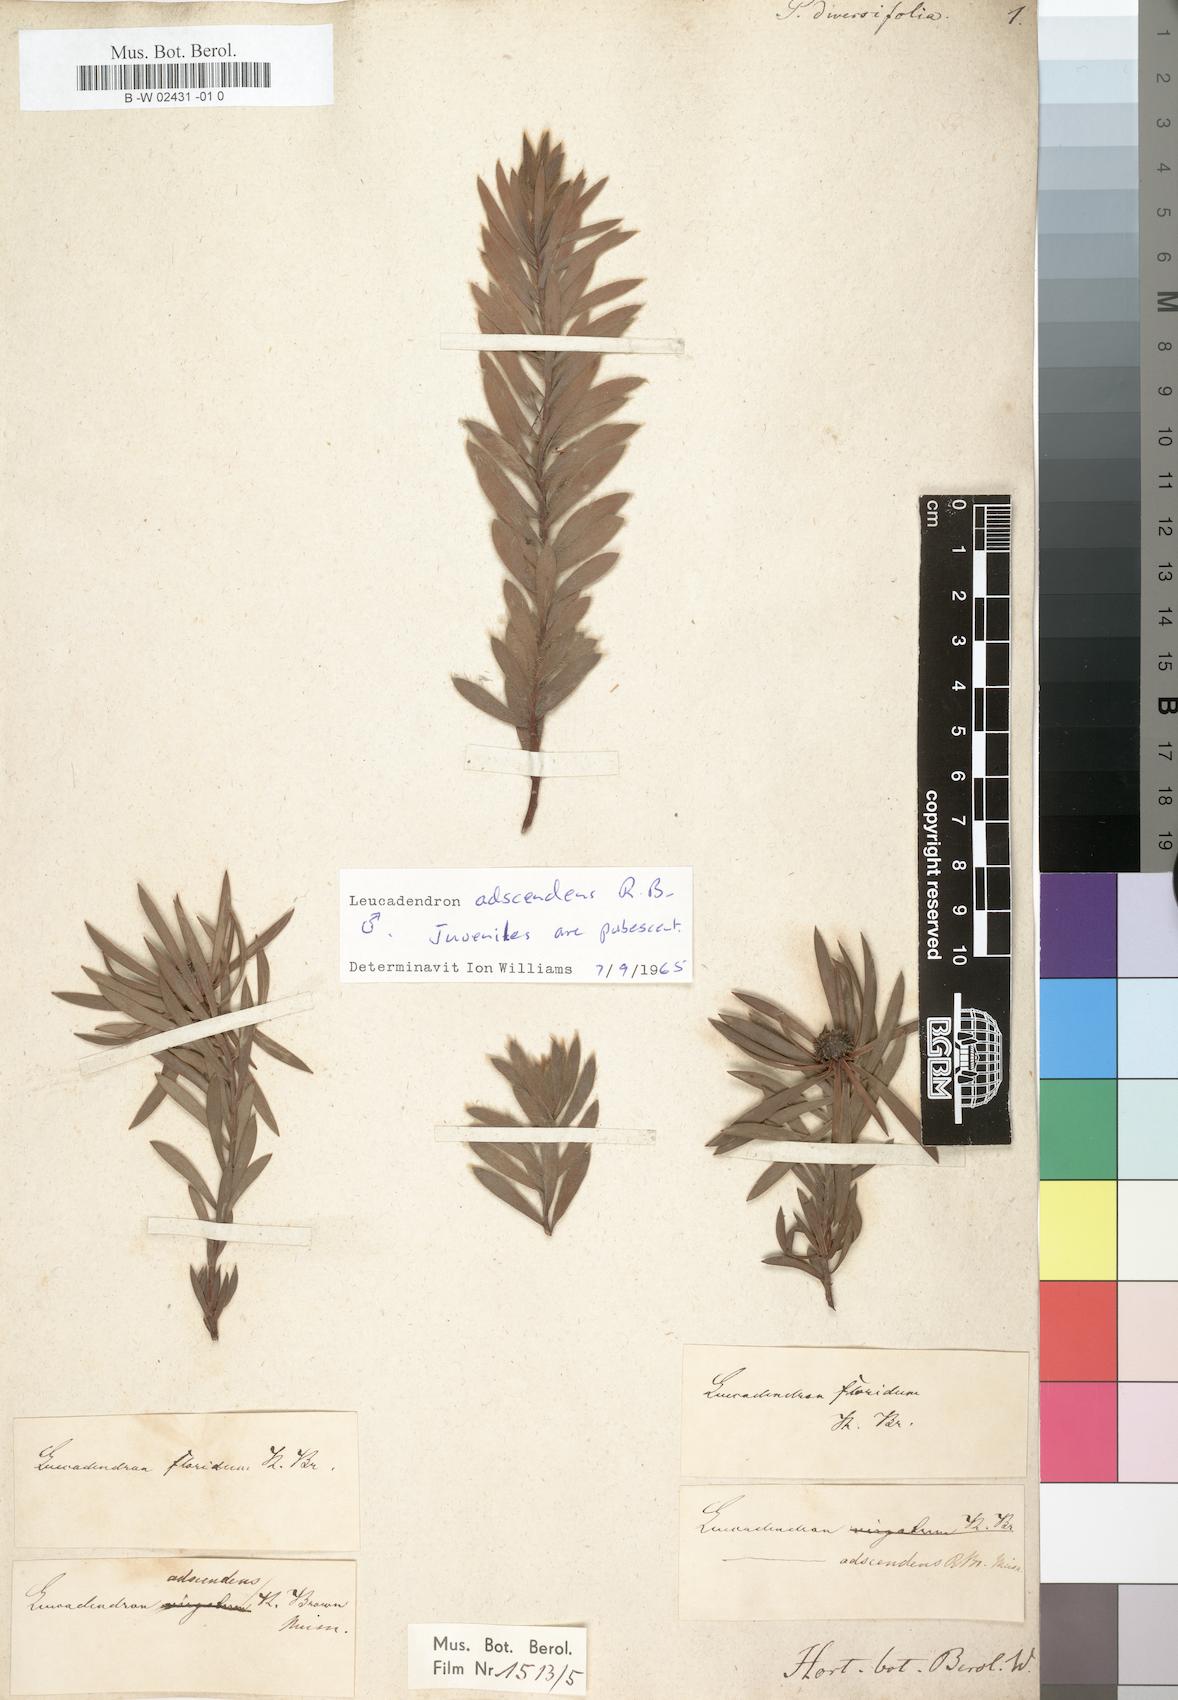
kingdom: Plantae
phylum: Tracheophyta
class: Magnoliopsida
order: Proteales
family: Proteaceae
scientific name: Proteaceae
